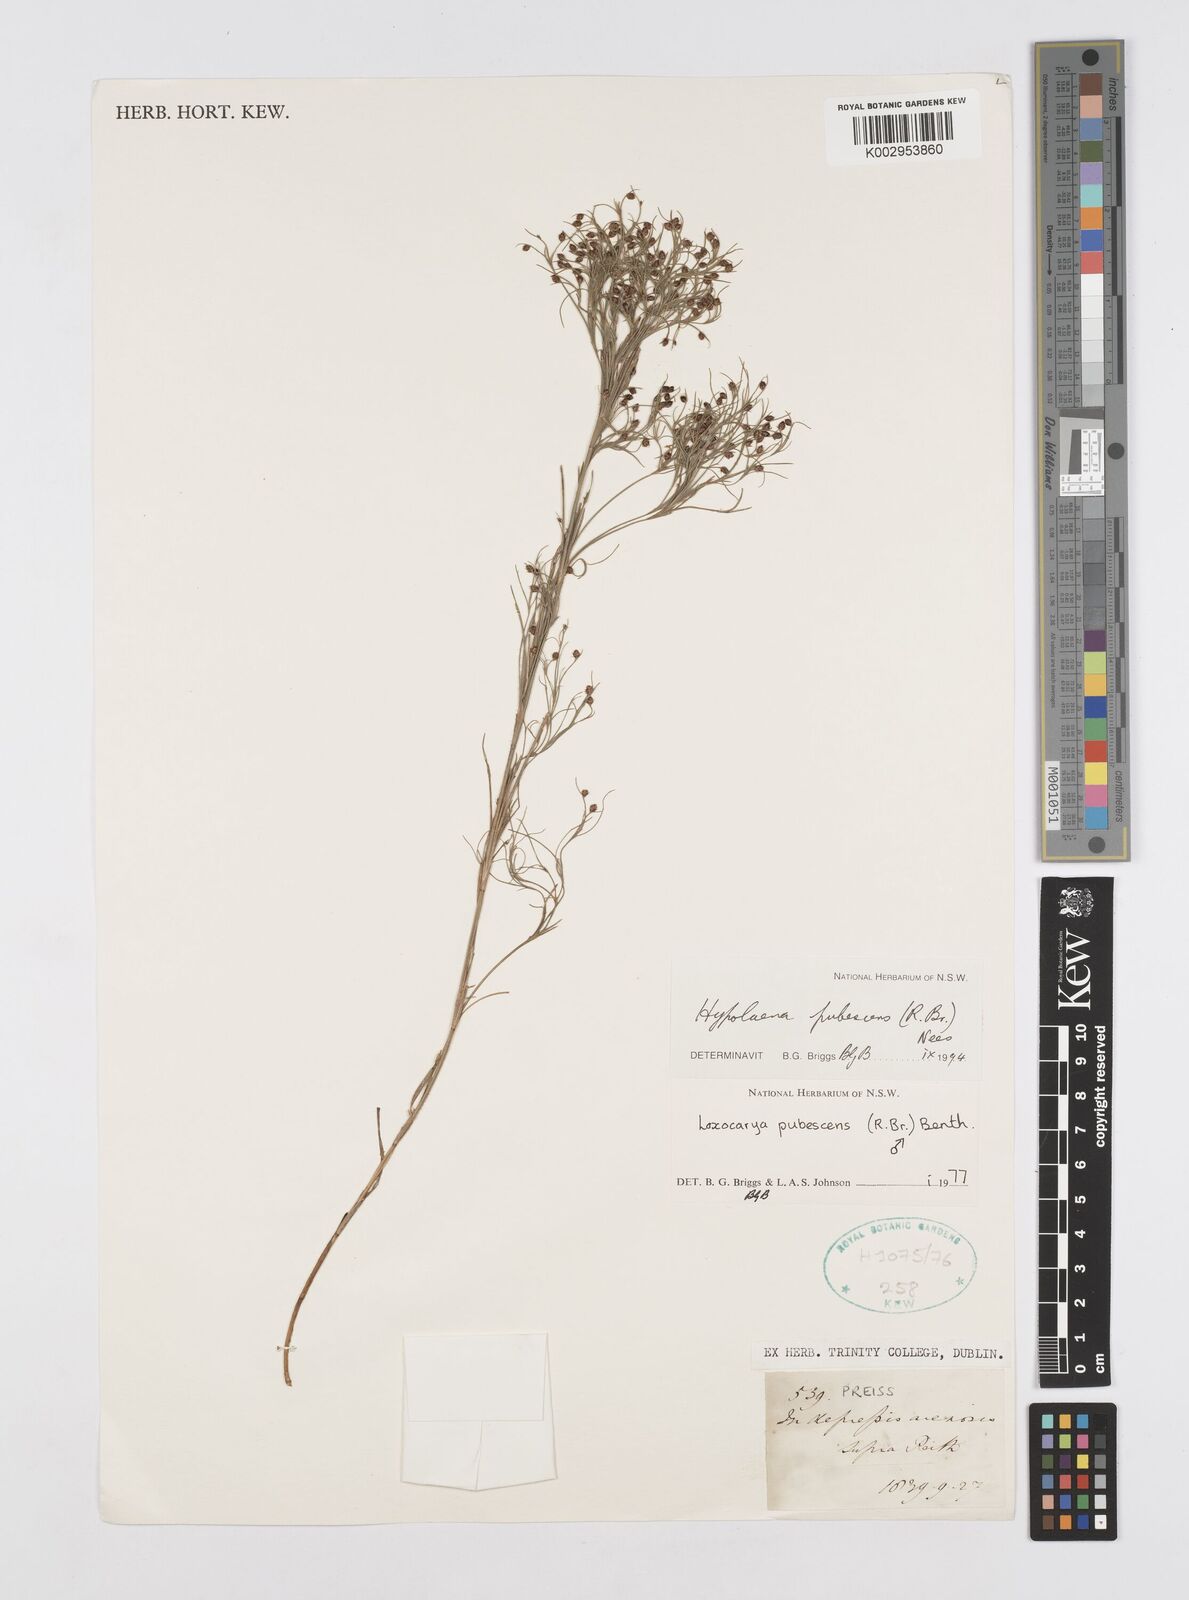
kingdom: Plantae
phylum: Tracheophyta
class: Liliopsida
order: Poales
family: Restionaceae
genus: Hypolaena
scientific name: Hypolaena pubescens
